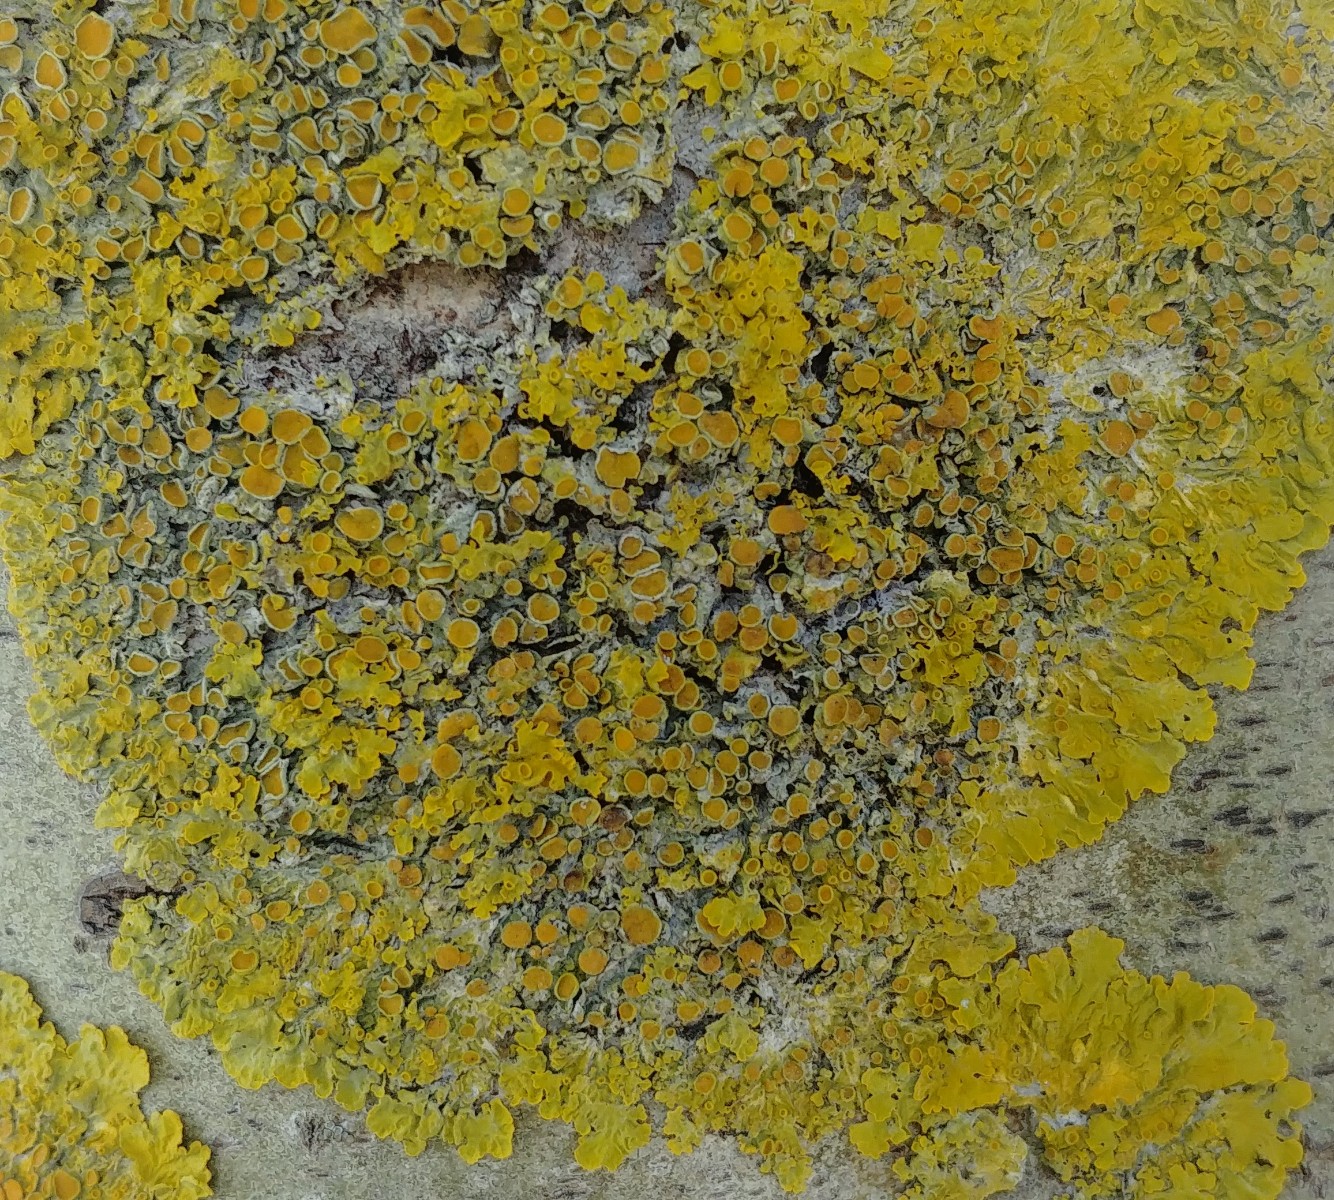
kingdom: Fungi
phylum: Ascomycota
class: Lecanoromycetes
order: Teloschistales
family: Teloschistaceae
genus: Xanthoria
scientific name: Xanthoria parietina
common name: almindelig væggelav
